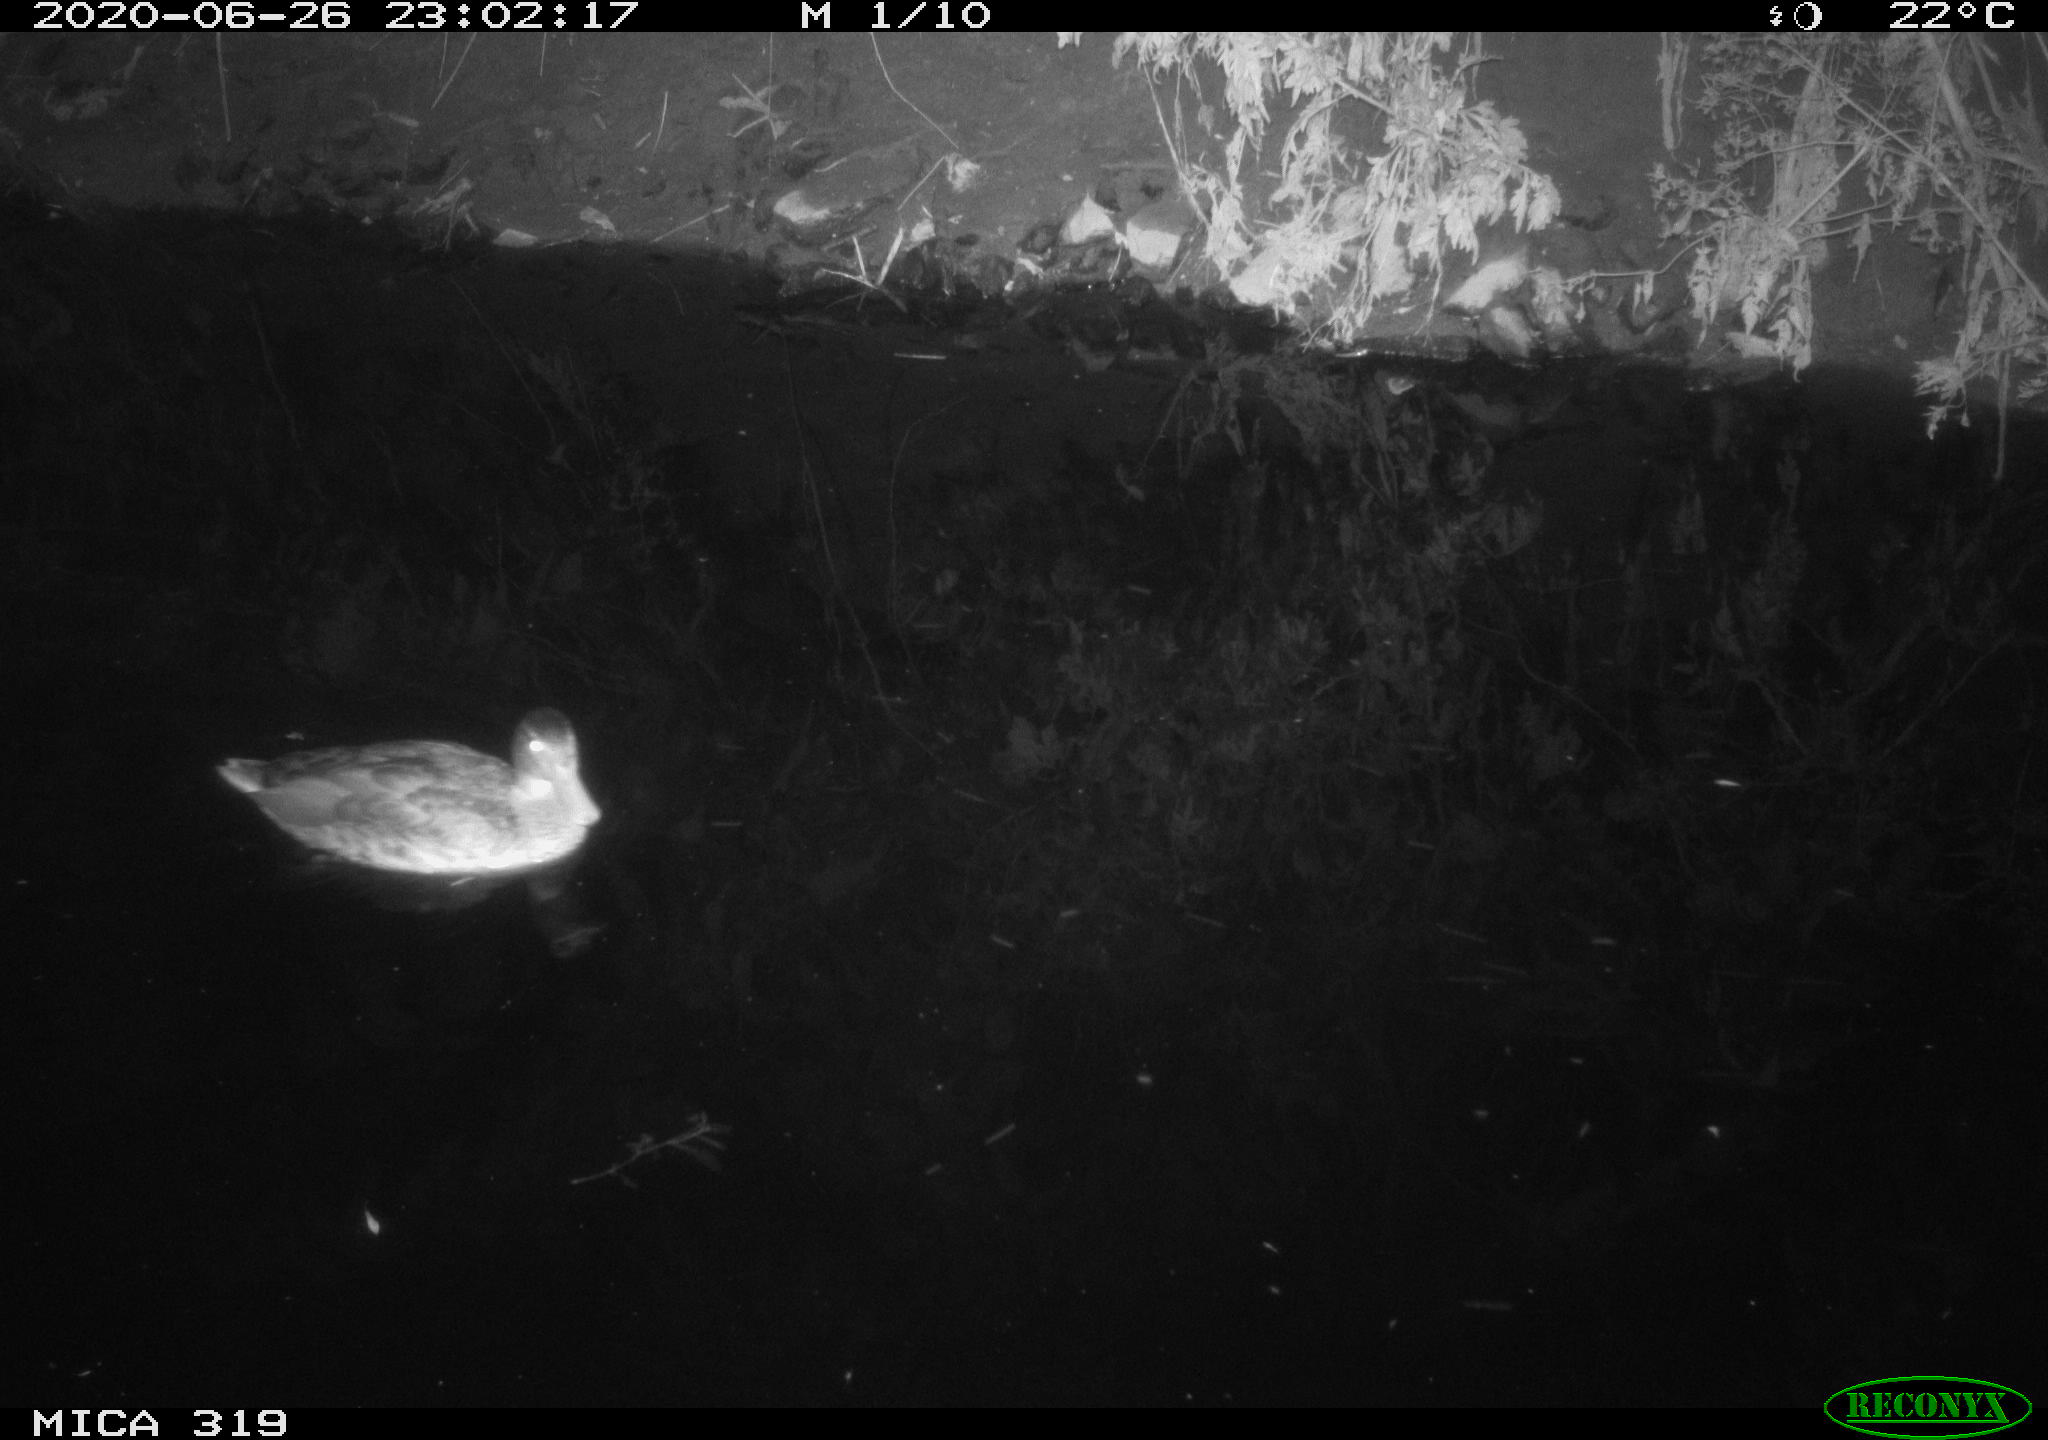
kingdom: Animalia
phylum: Chordata
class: Aves
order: Anseriformes
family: Anatidae
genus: Anas
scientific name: Anas platyrhynchos
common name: Mallard
